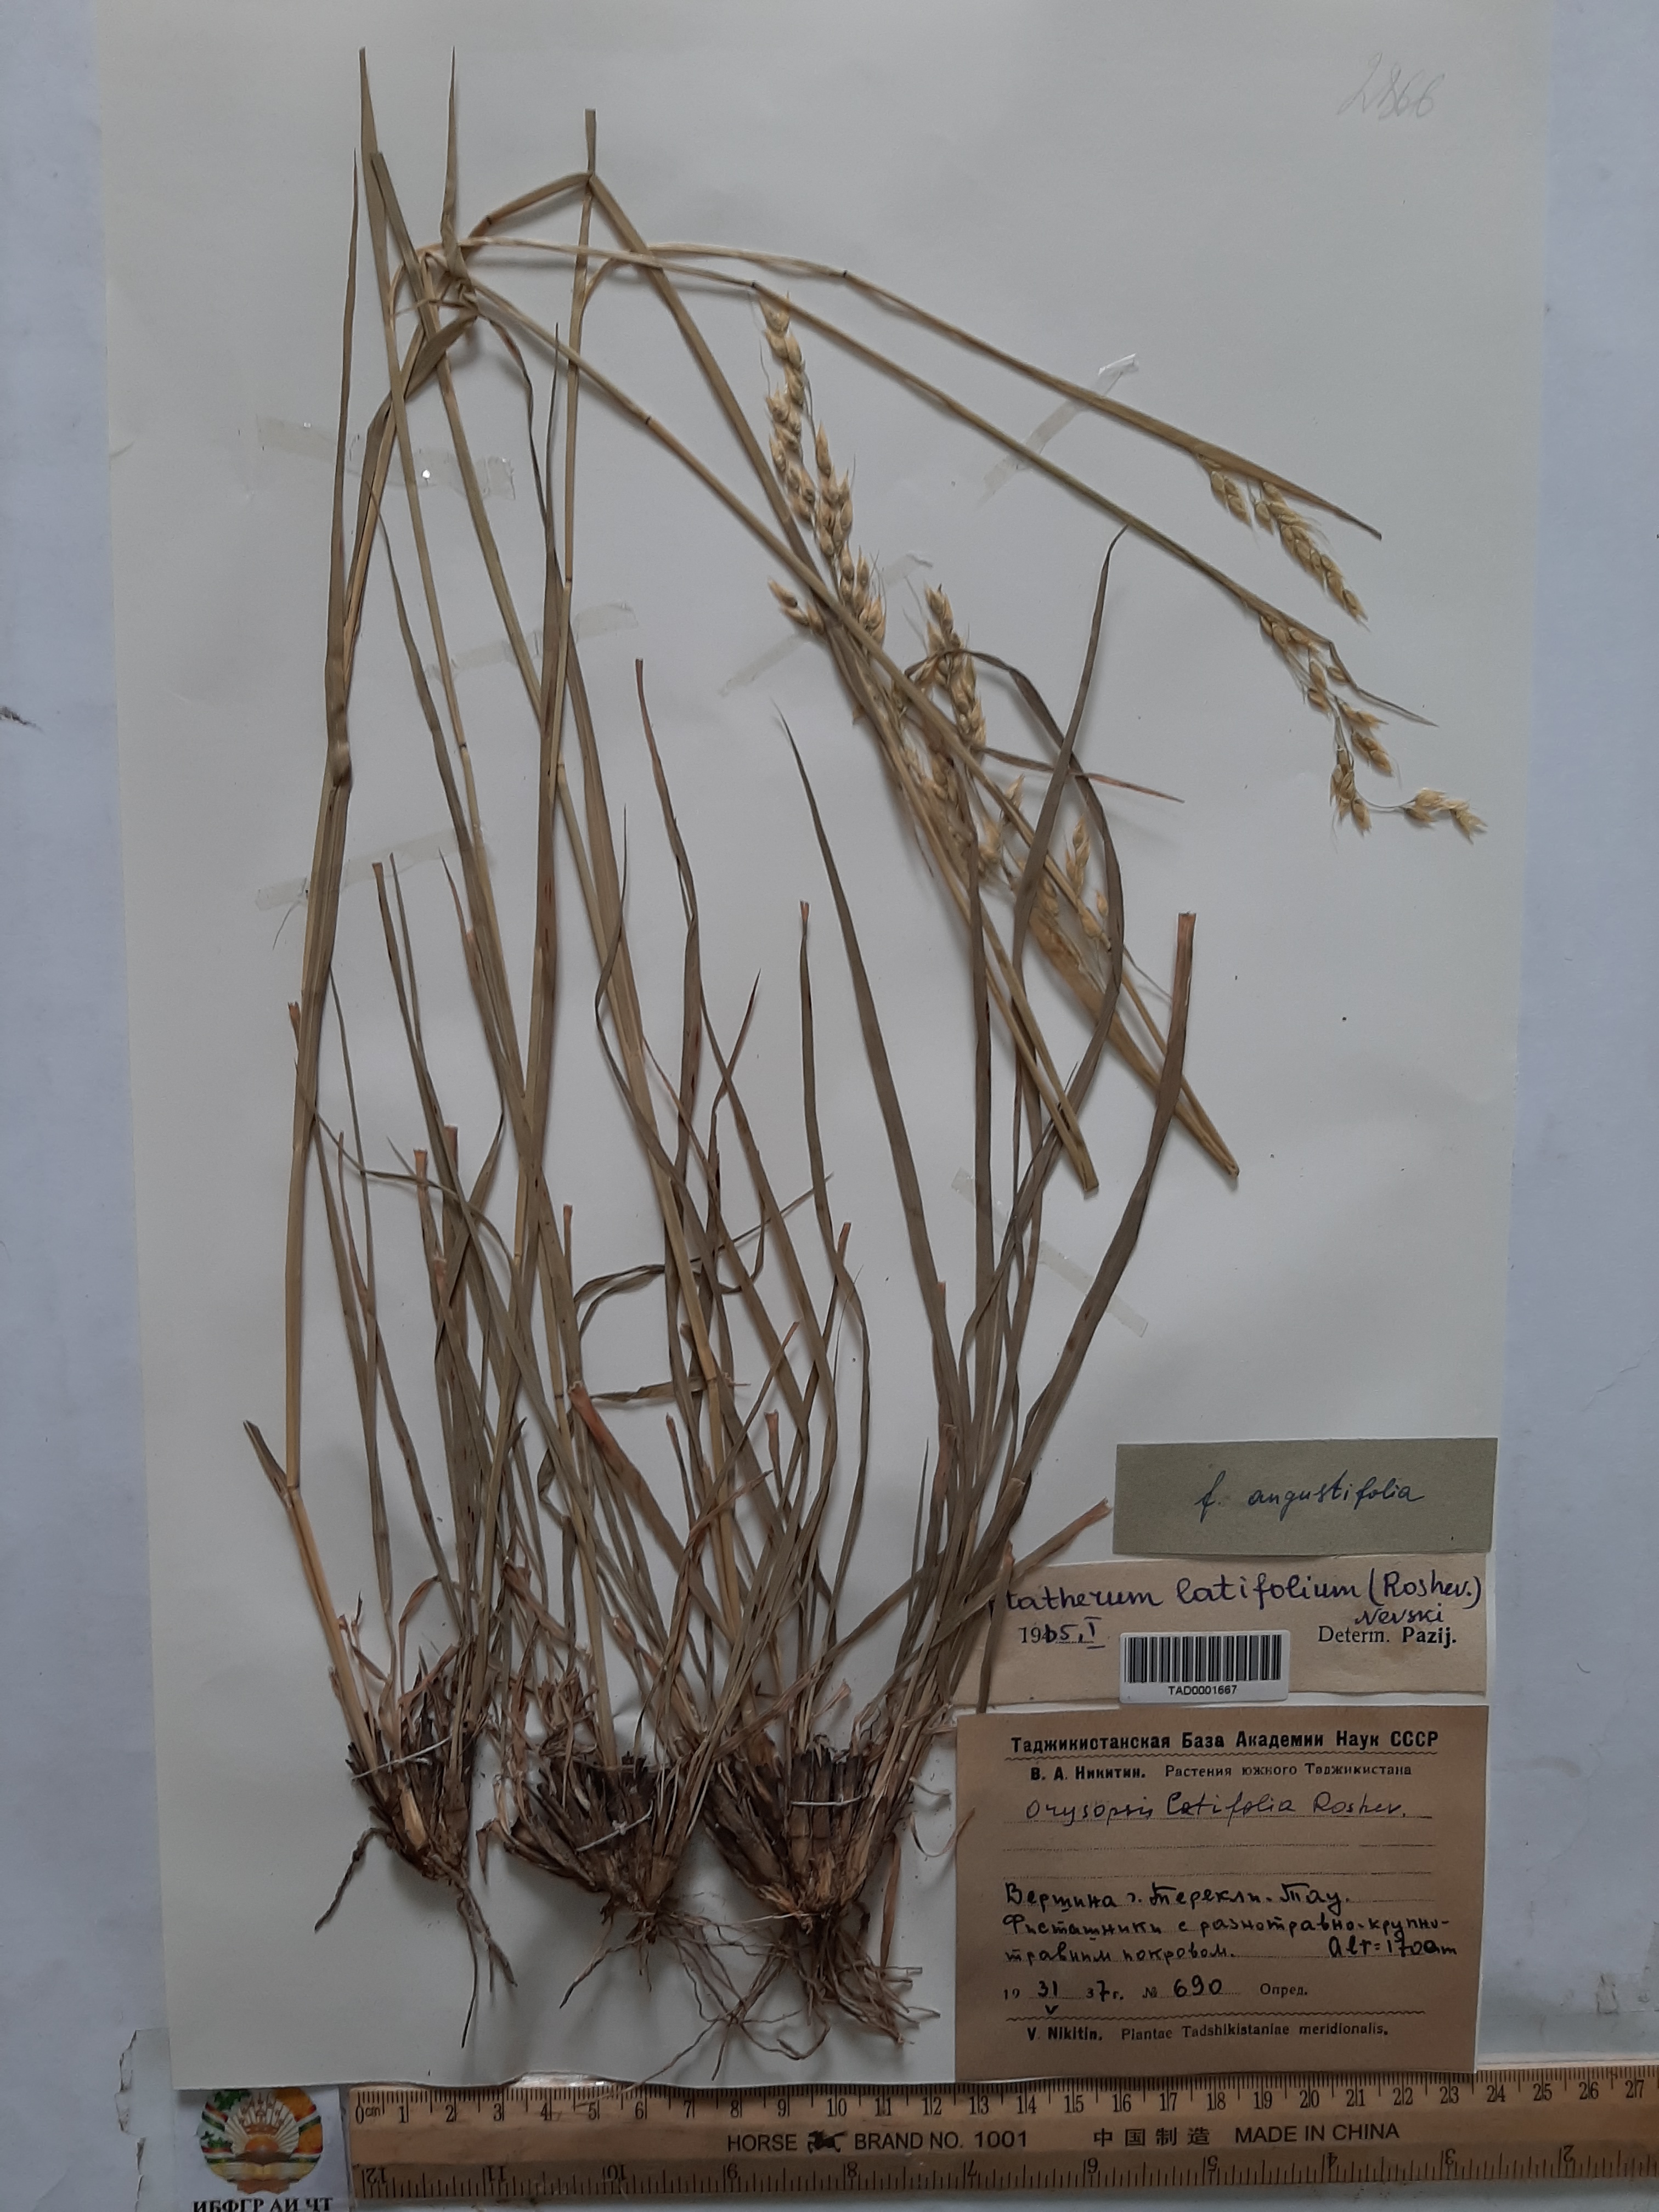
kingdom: Plantae
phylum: Tracheophyta
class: Liliopsida
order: Poales
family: Poaceae
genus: Piptatherum
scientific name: Piptatherum latifolium
